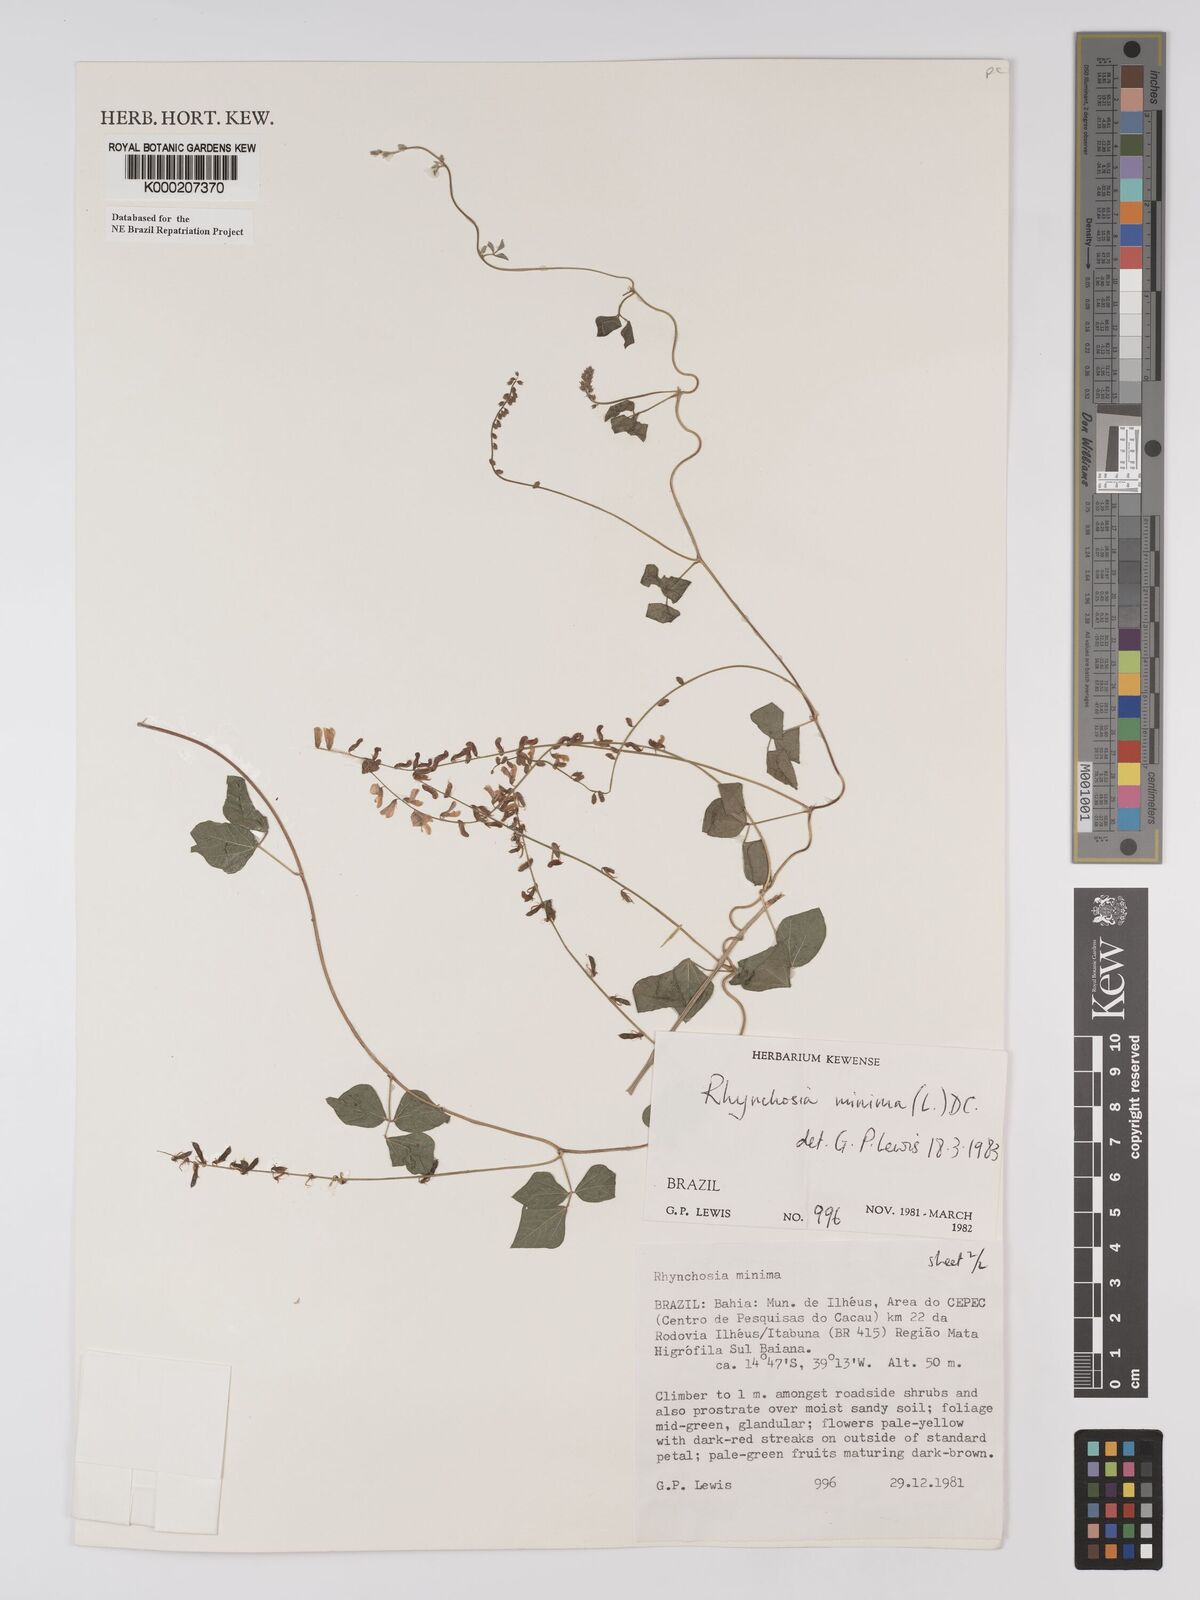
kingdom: Plantae
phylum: Tracheophyta
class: Magnoliopsida
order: Fabales
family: Fabaceae
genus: Rhynchosia
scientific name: Rhynchosia minima
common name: Least snoutbean
